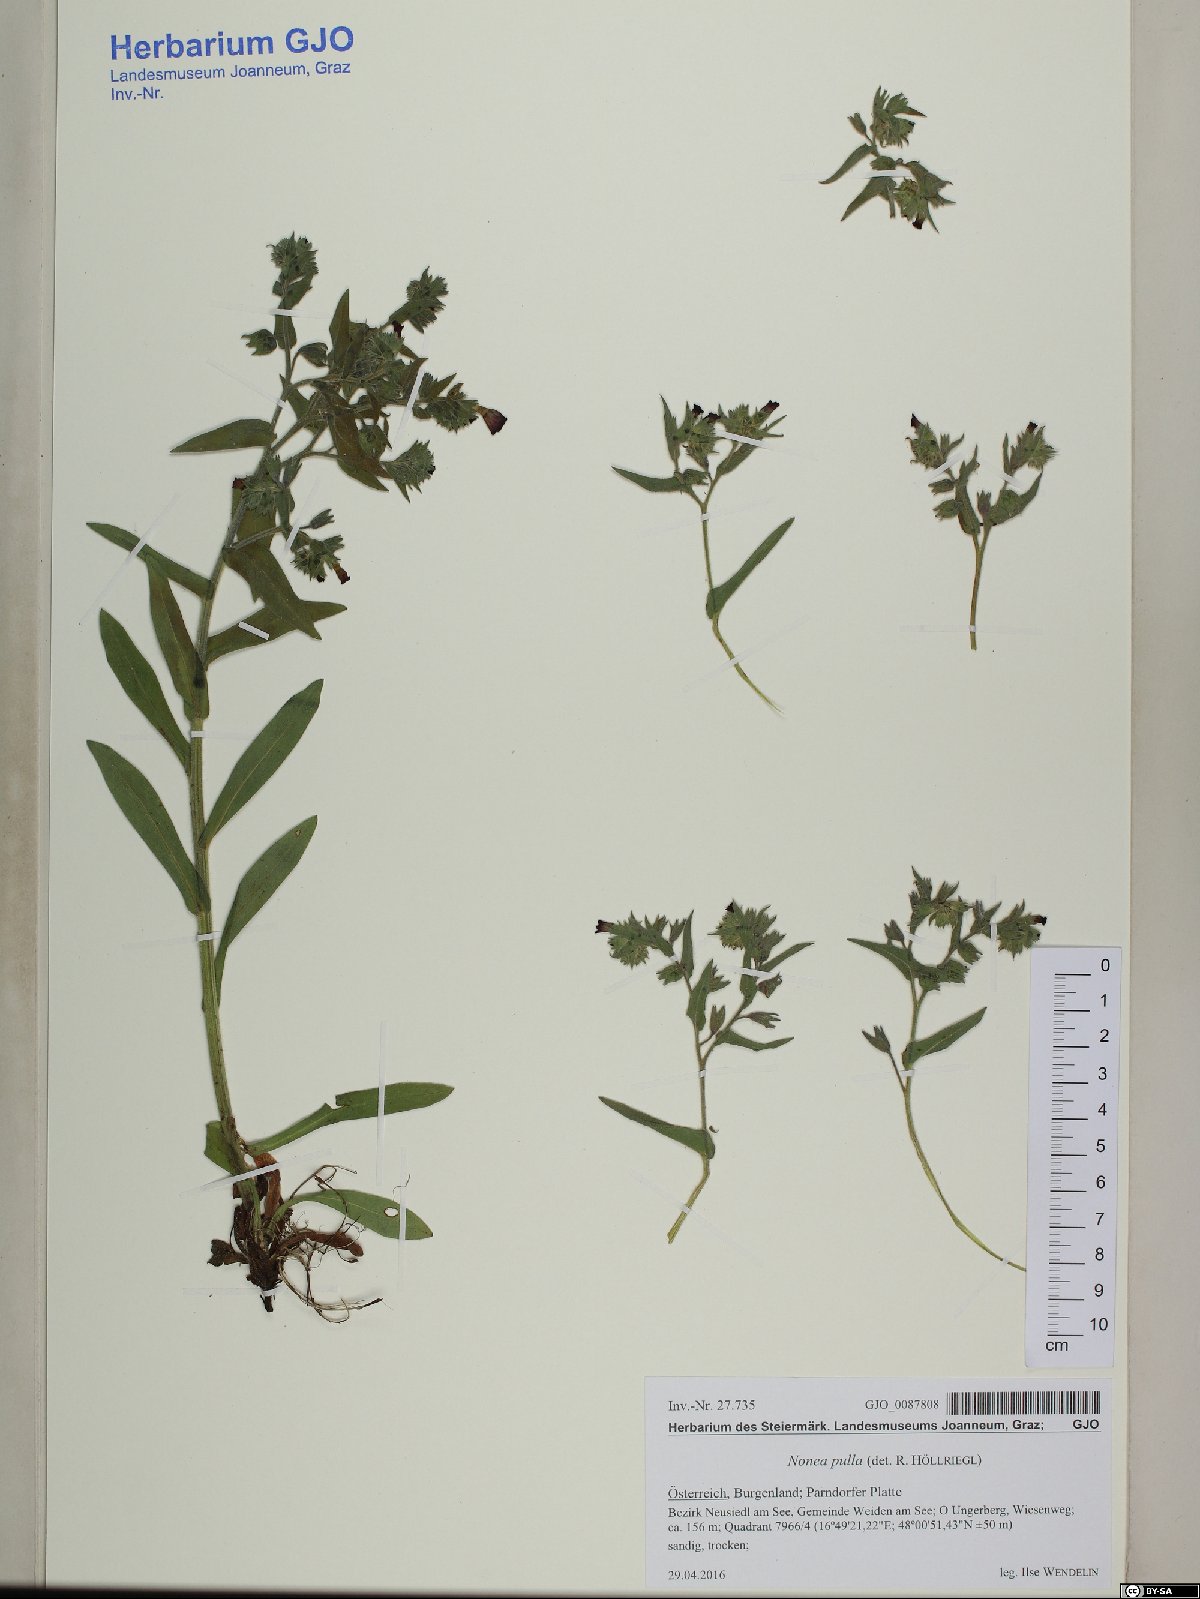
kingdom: Plantae
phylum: Tracheophyta
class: Magnoliopsida
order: Boraginales
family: Boraginaceae
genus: Nonea
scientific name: Nonea pulla
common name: Brown nonea
